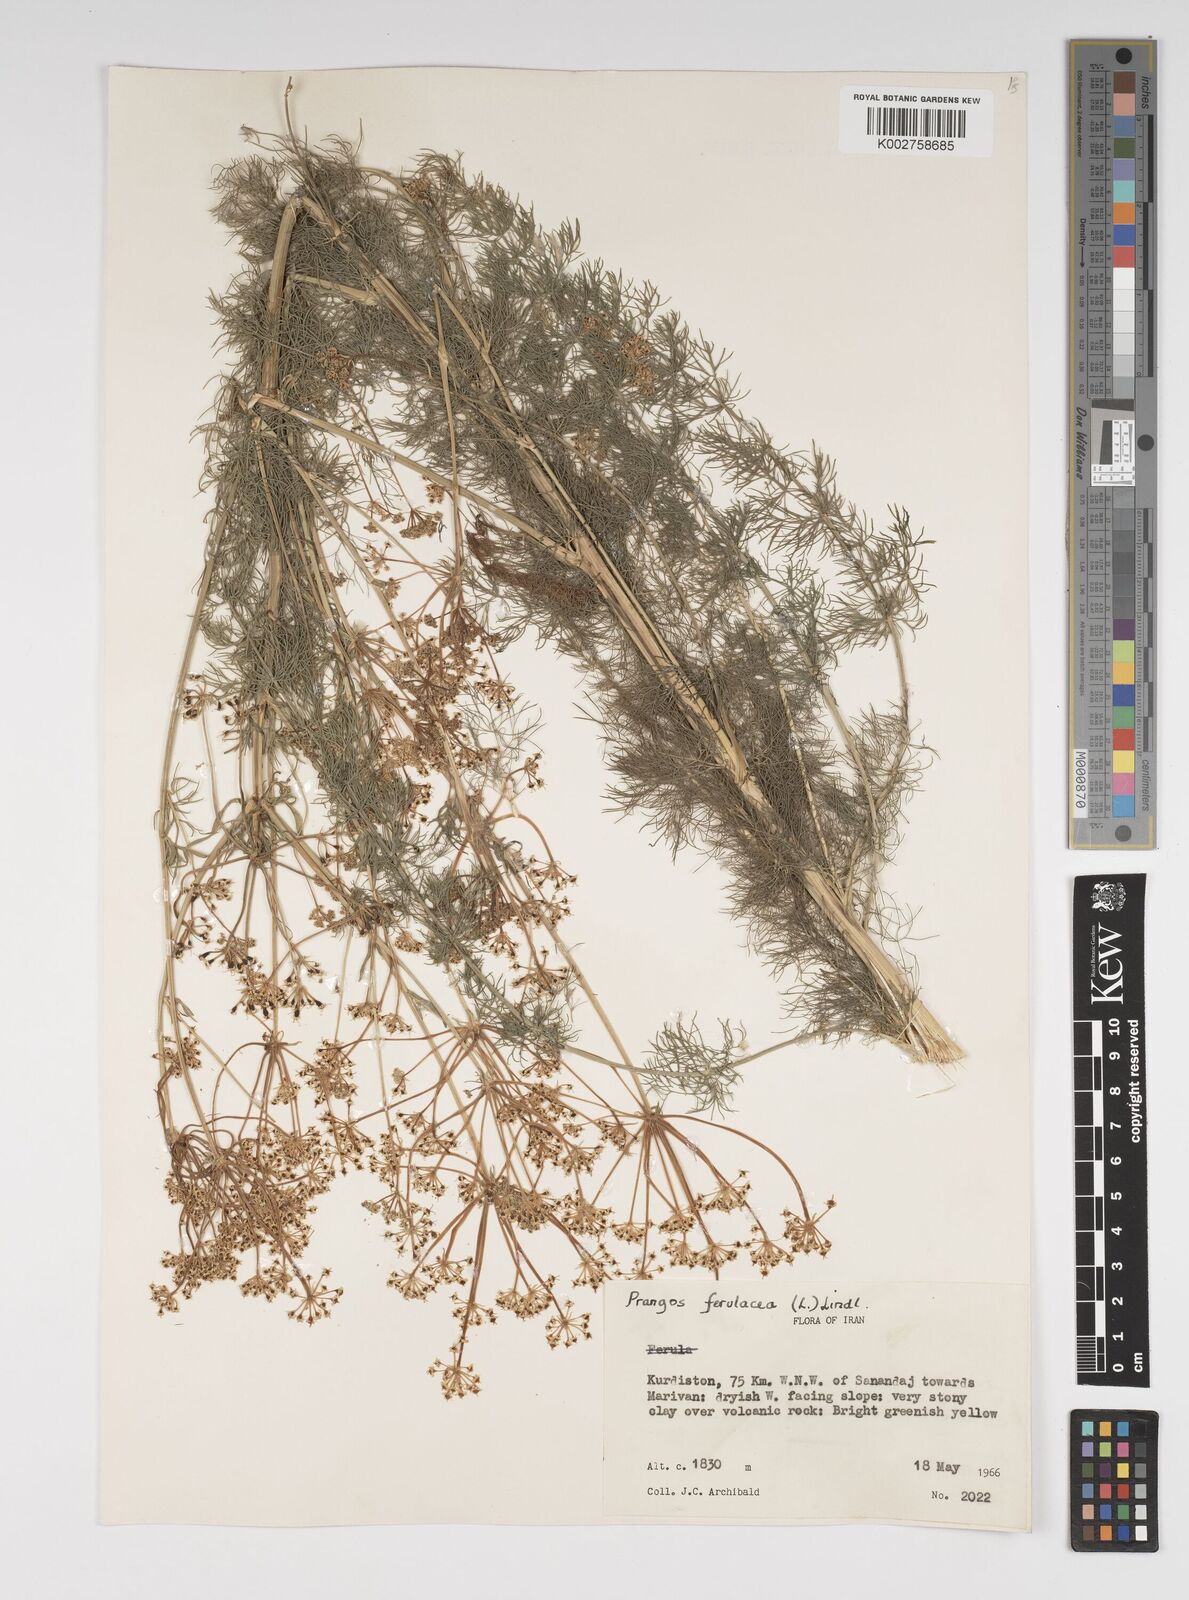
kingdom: Plantae
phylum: Tracheophyta
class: Magnoliopsida
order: Apiales
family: Apiaceae
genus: Prangos
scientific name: Prangos ferulacea
